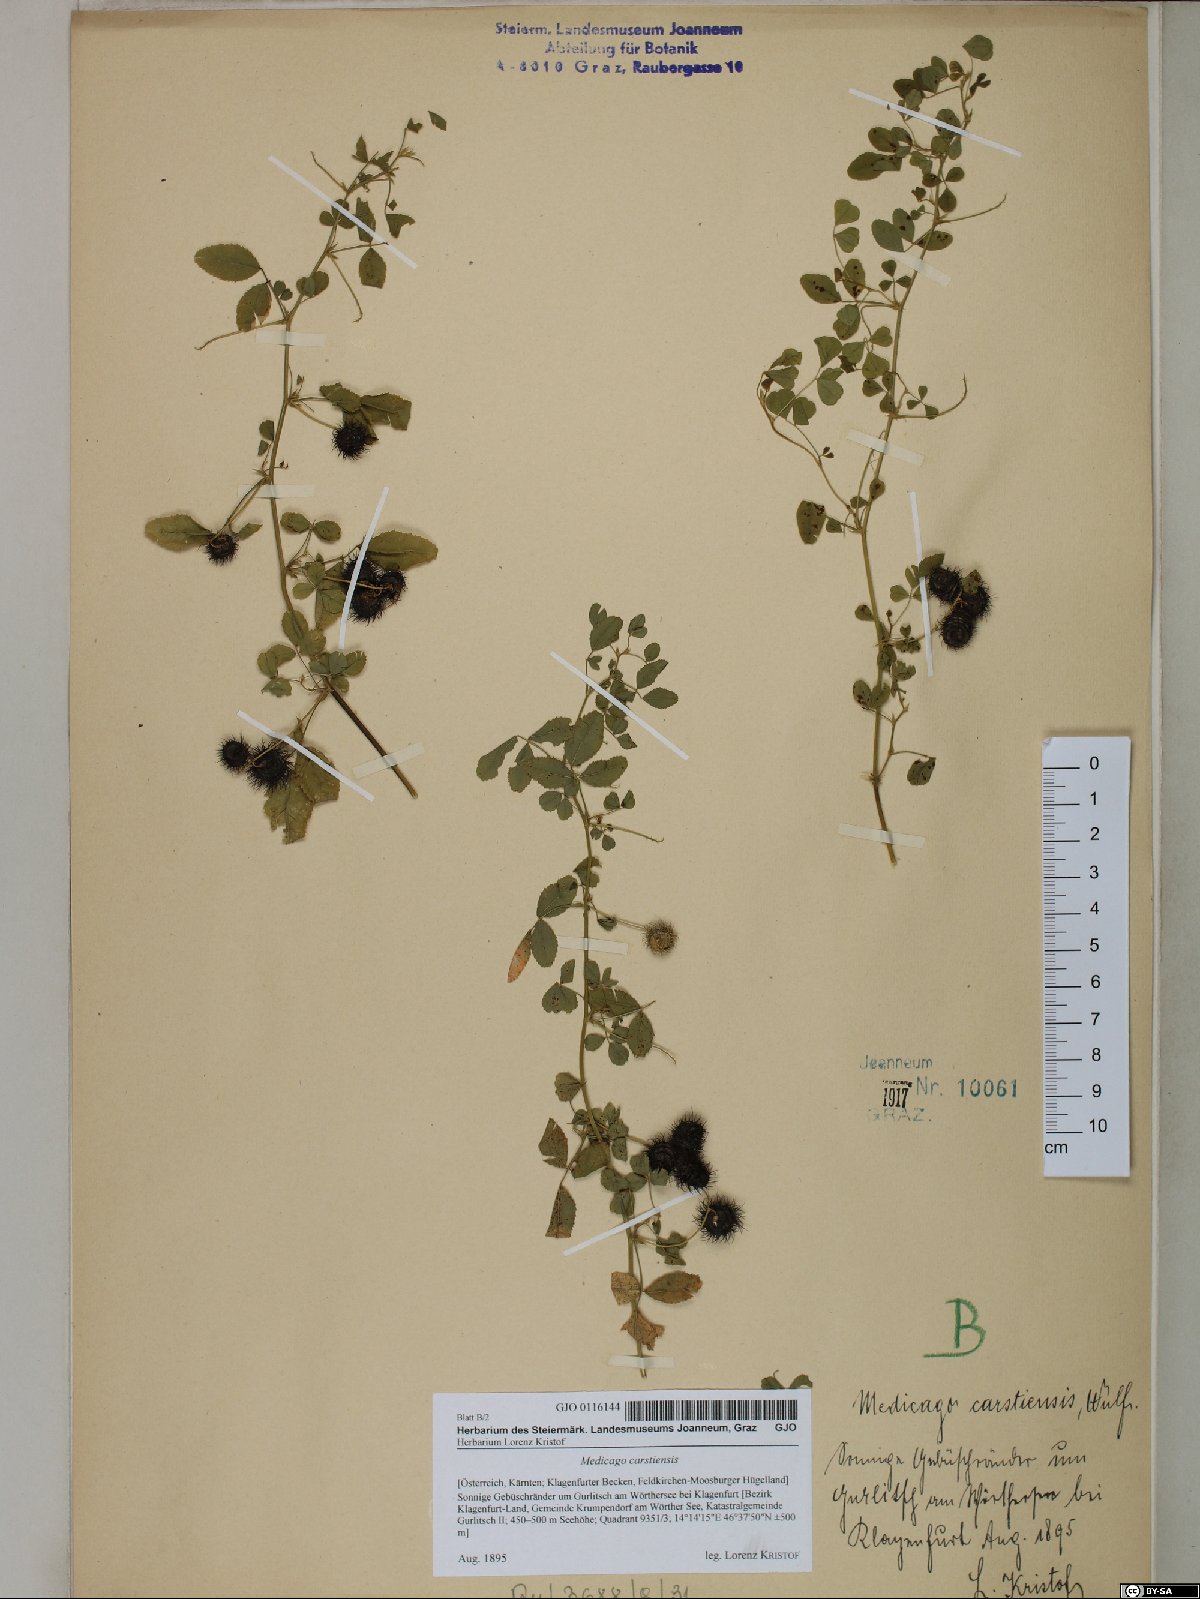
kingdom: Plantae
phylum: Tracheophyta
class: Magnoliopsida
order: Fabales
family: Fabaceae
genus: Medicago
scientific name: Medicago carstiensis
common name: Creeping-rooted medic
